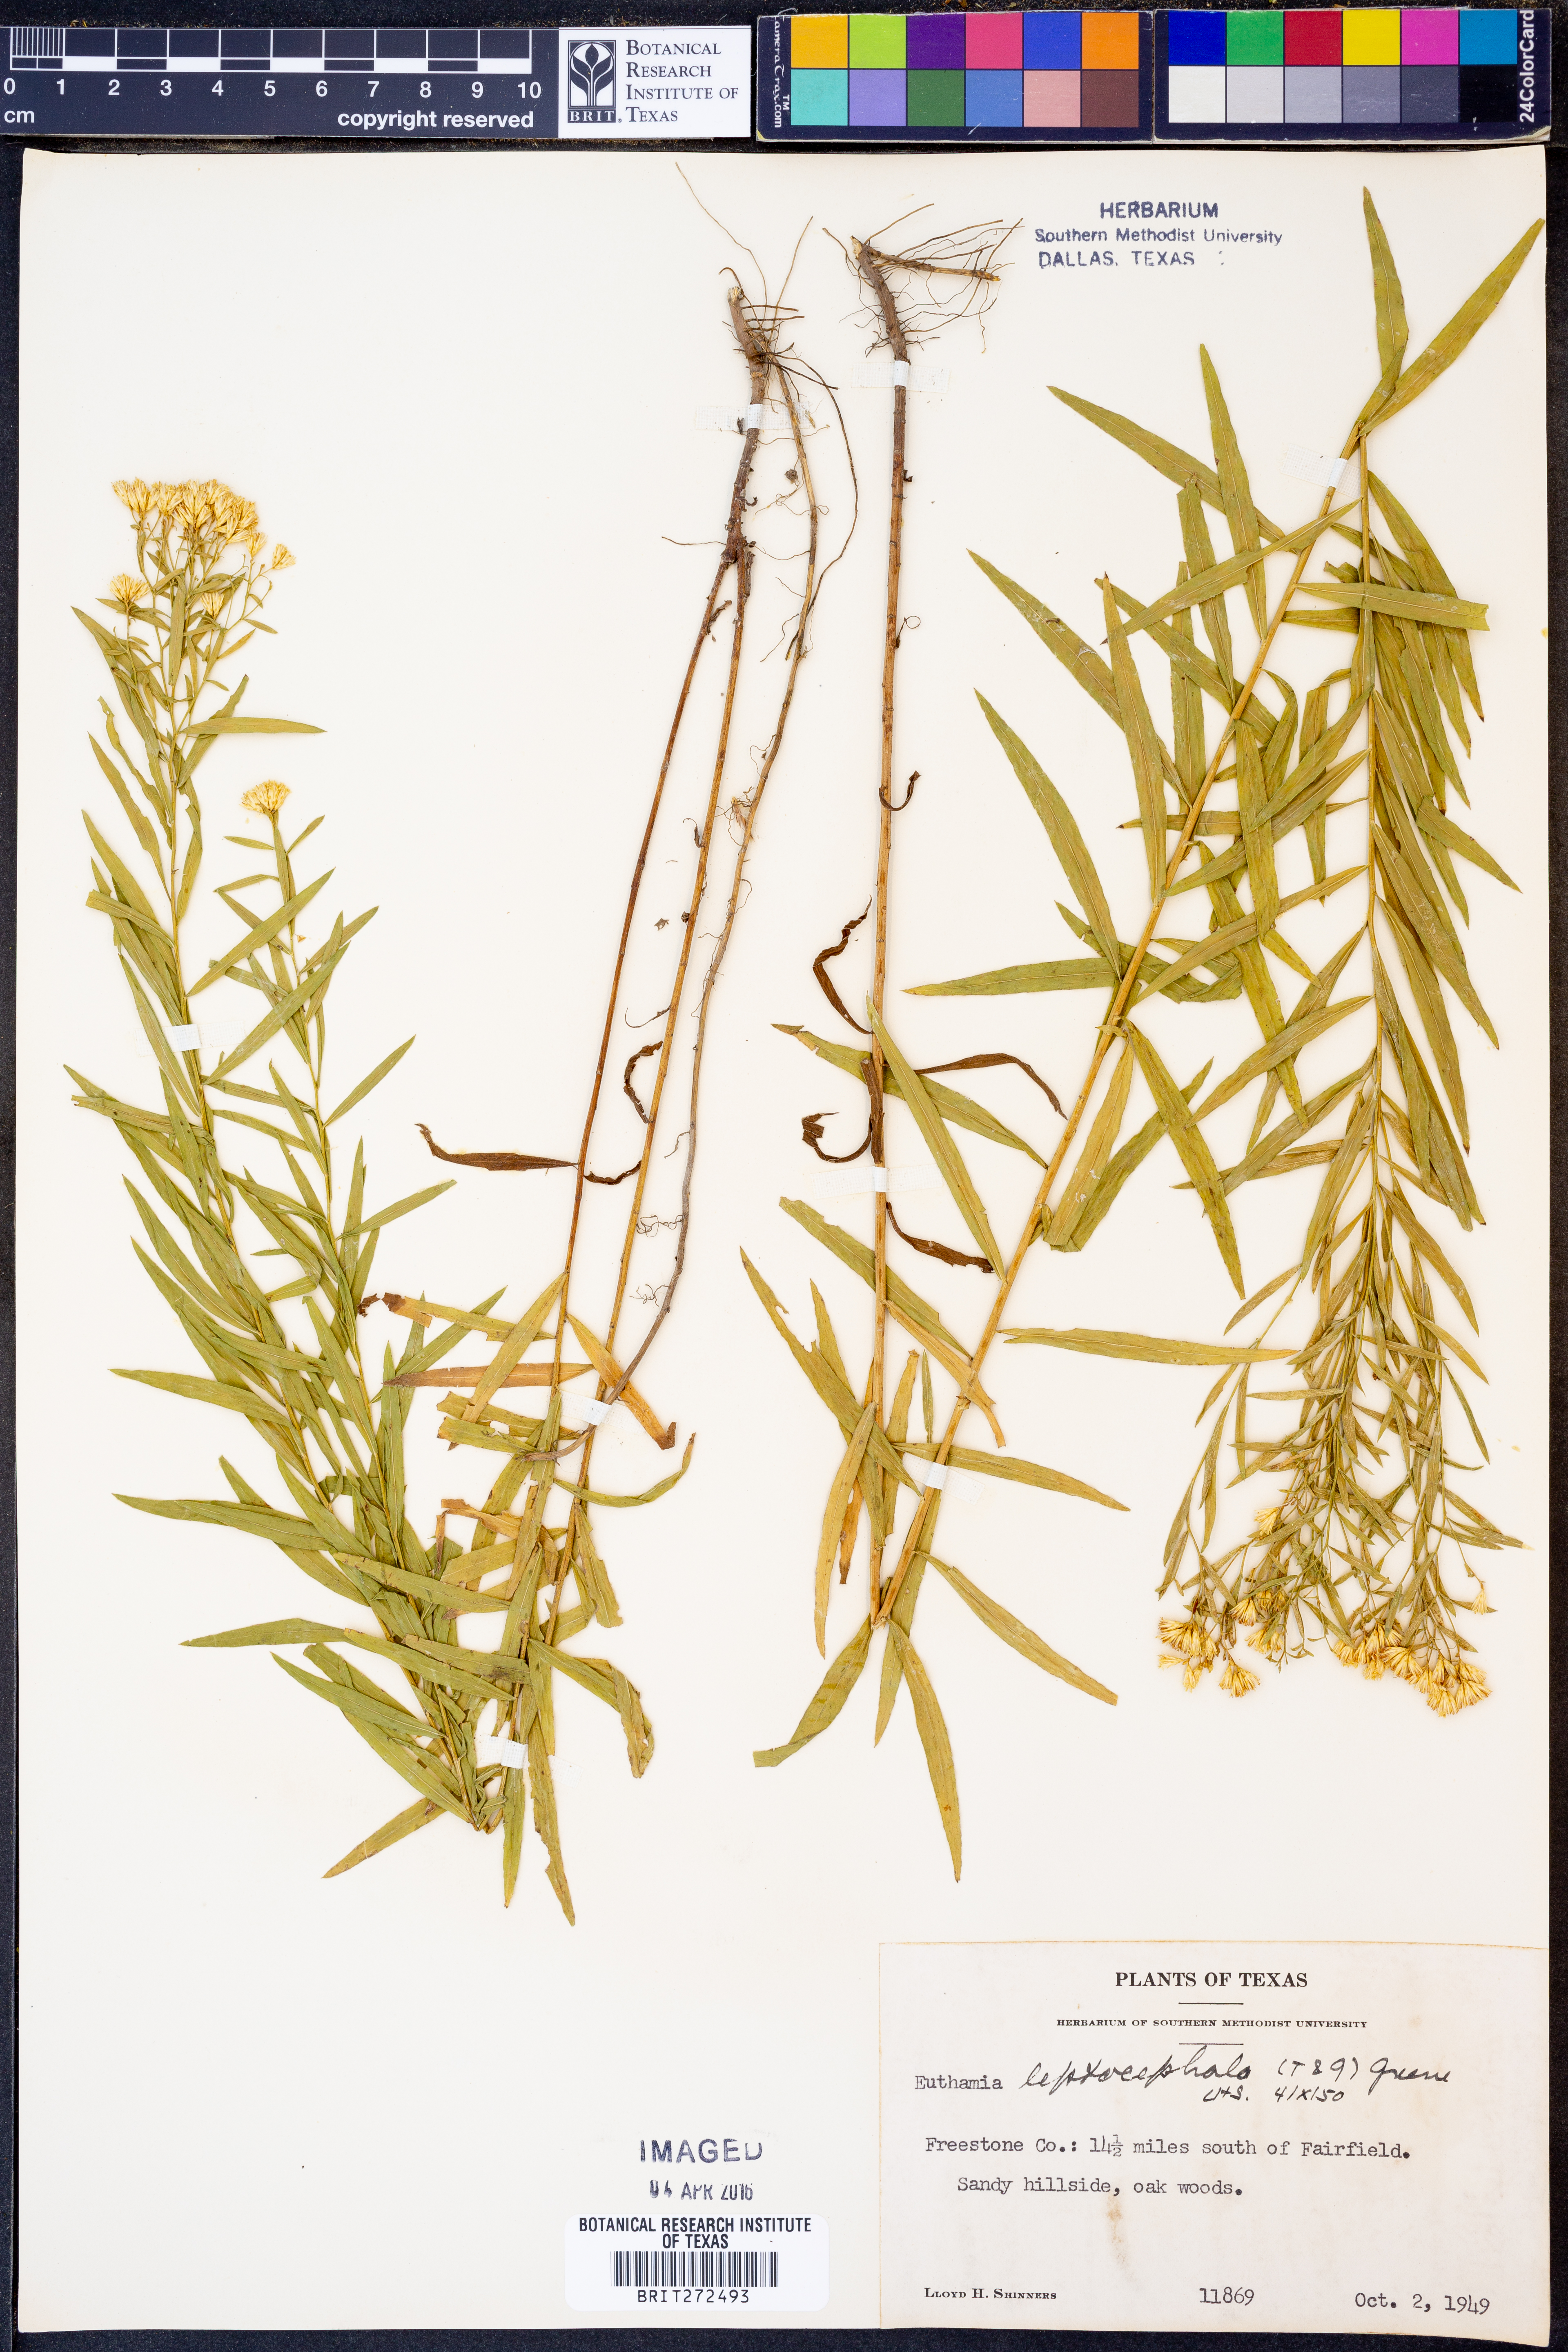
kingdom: Plantae
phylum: Tracheophyta
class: Magnoliopsida
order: Asterales
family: Asteraceae
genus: Euthamia
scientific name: Euthamia leptocephala
